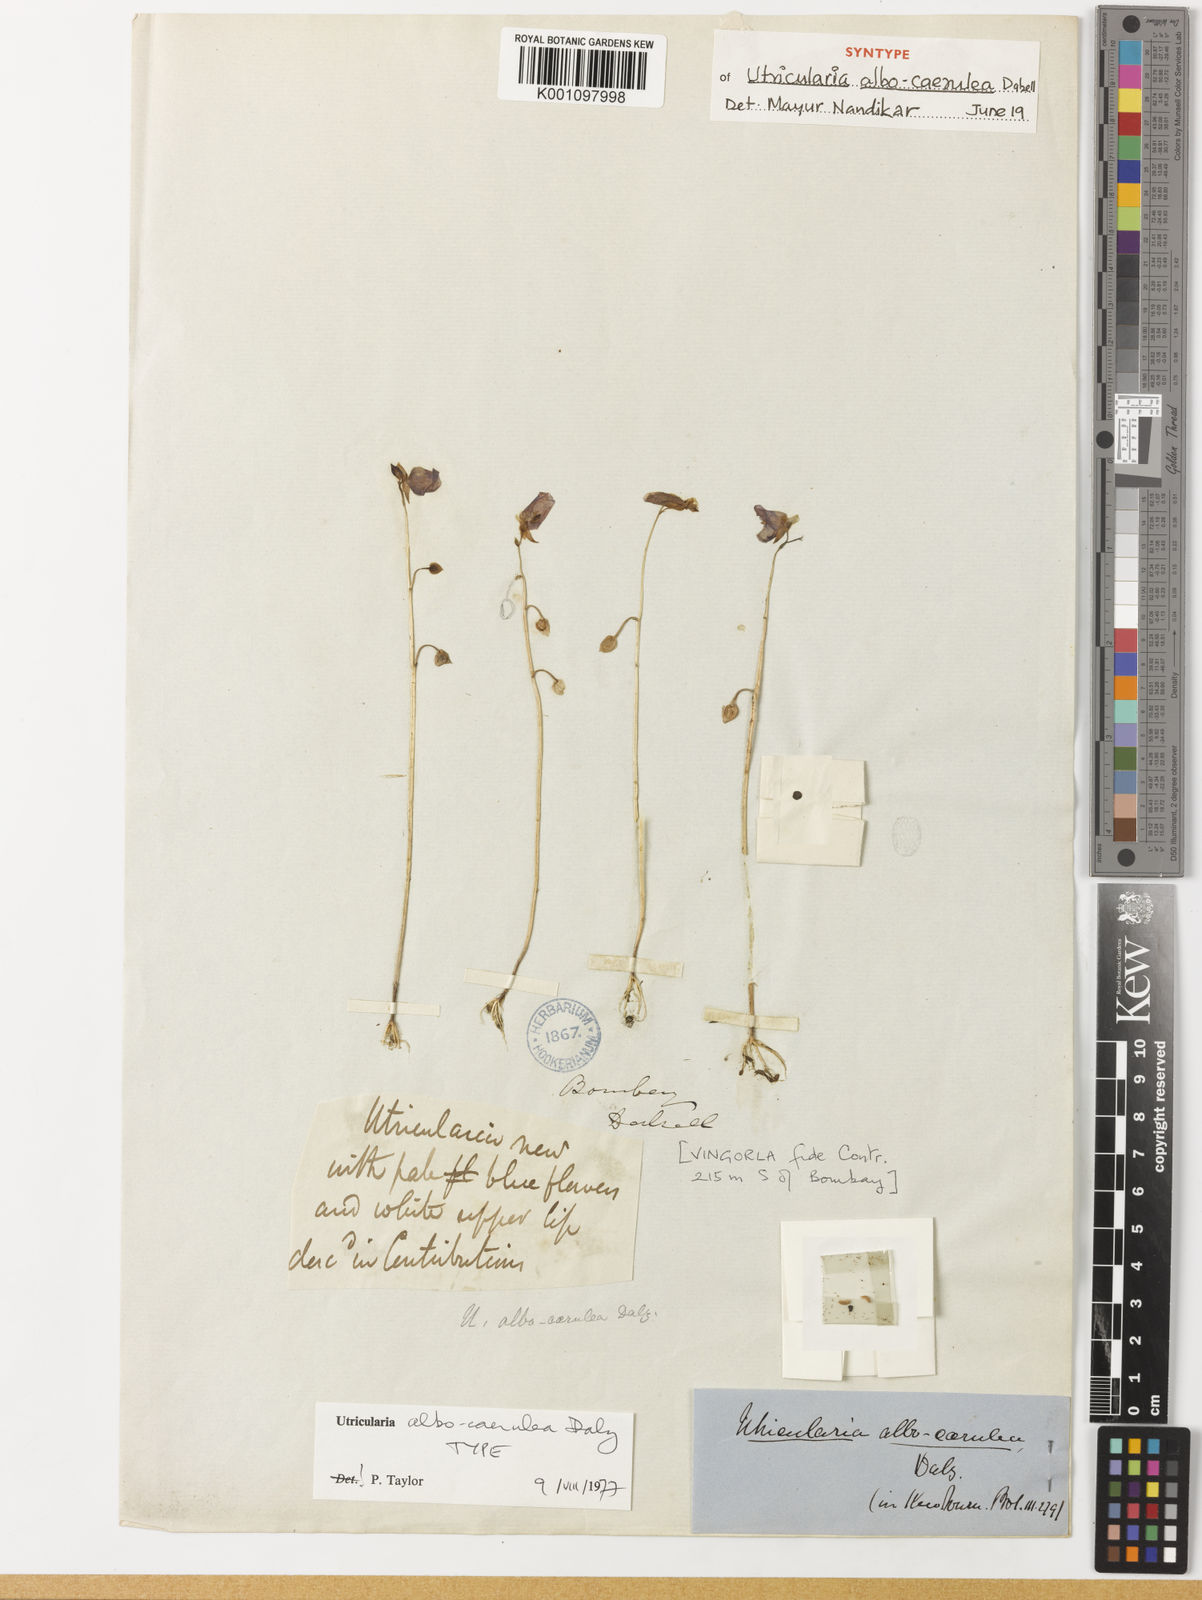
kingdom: Plantae
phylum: Tracheophyta
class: Magnoliopsida
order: Lamiales
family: Lentibulariaceae
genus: Utricularia
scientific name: Utricularia
